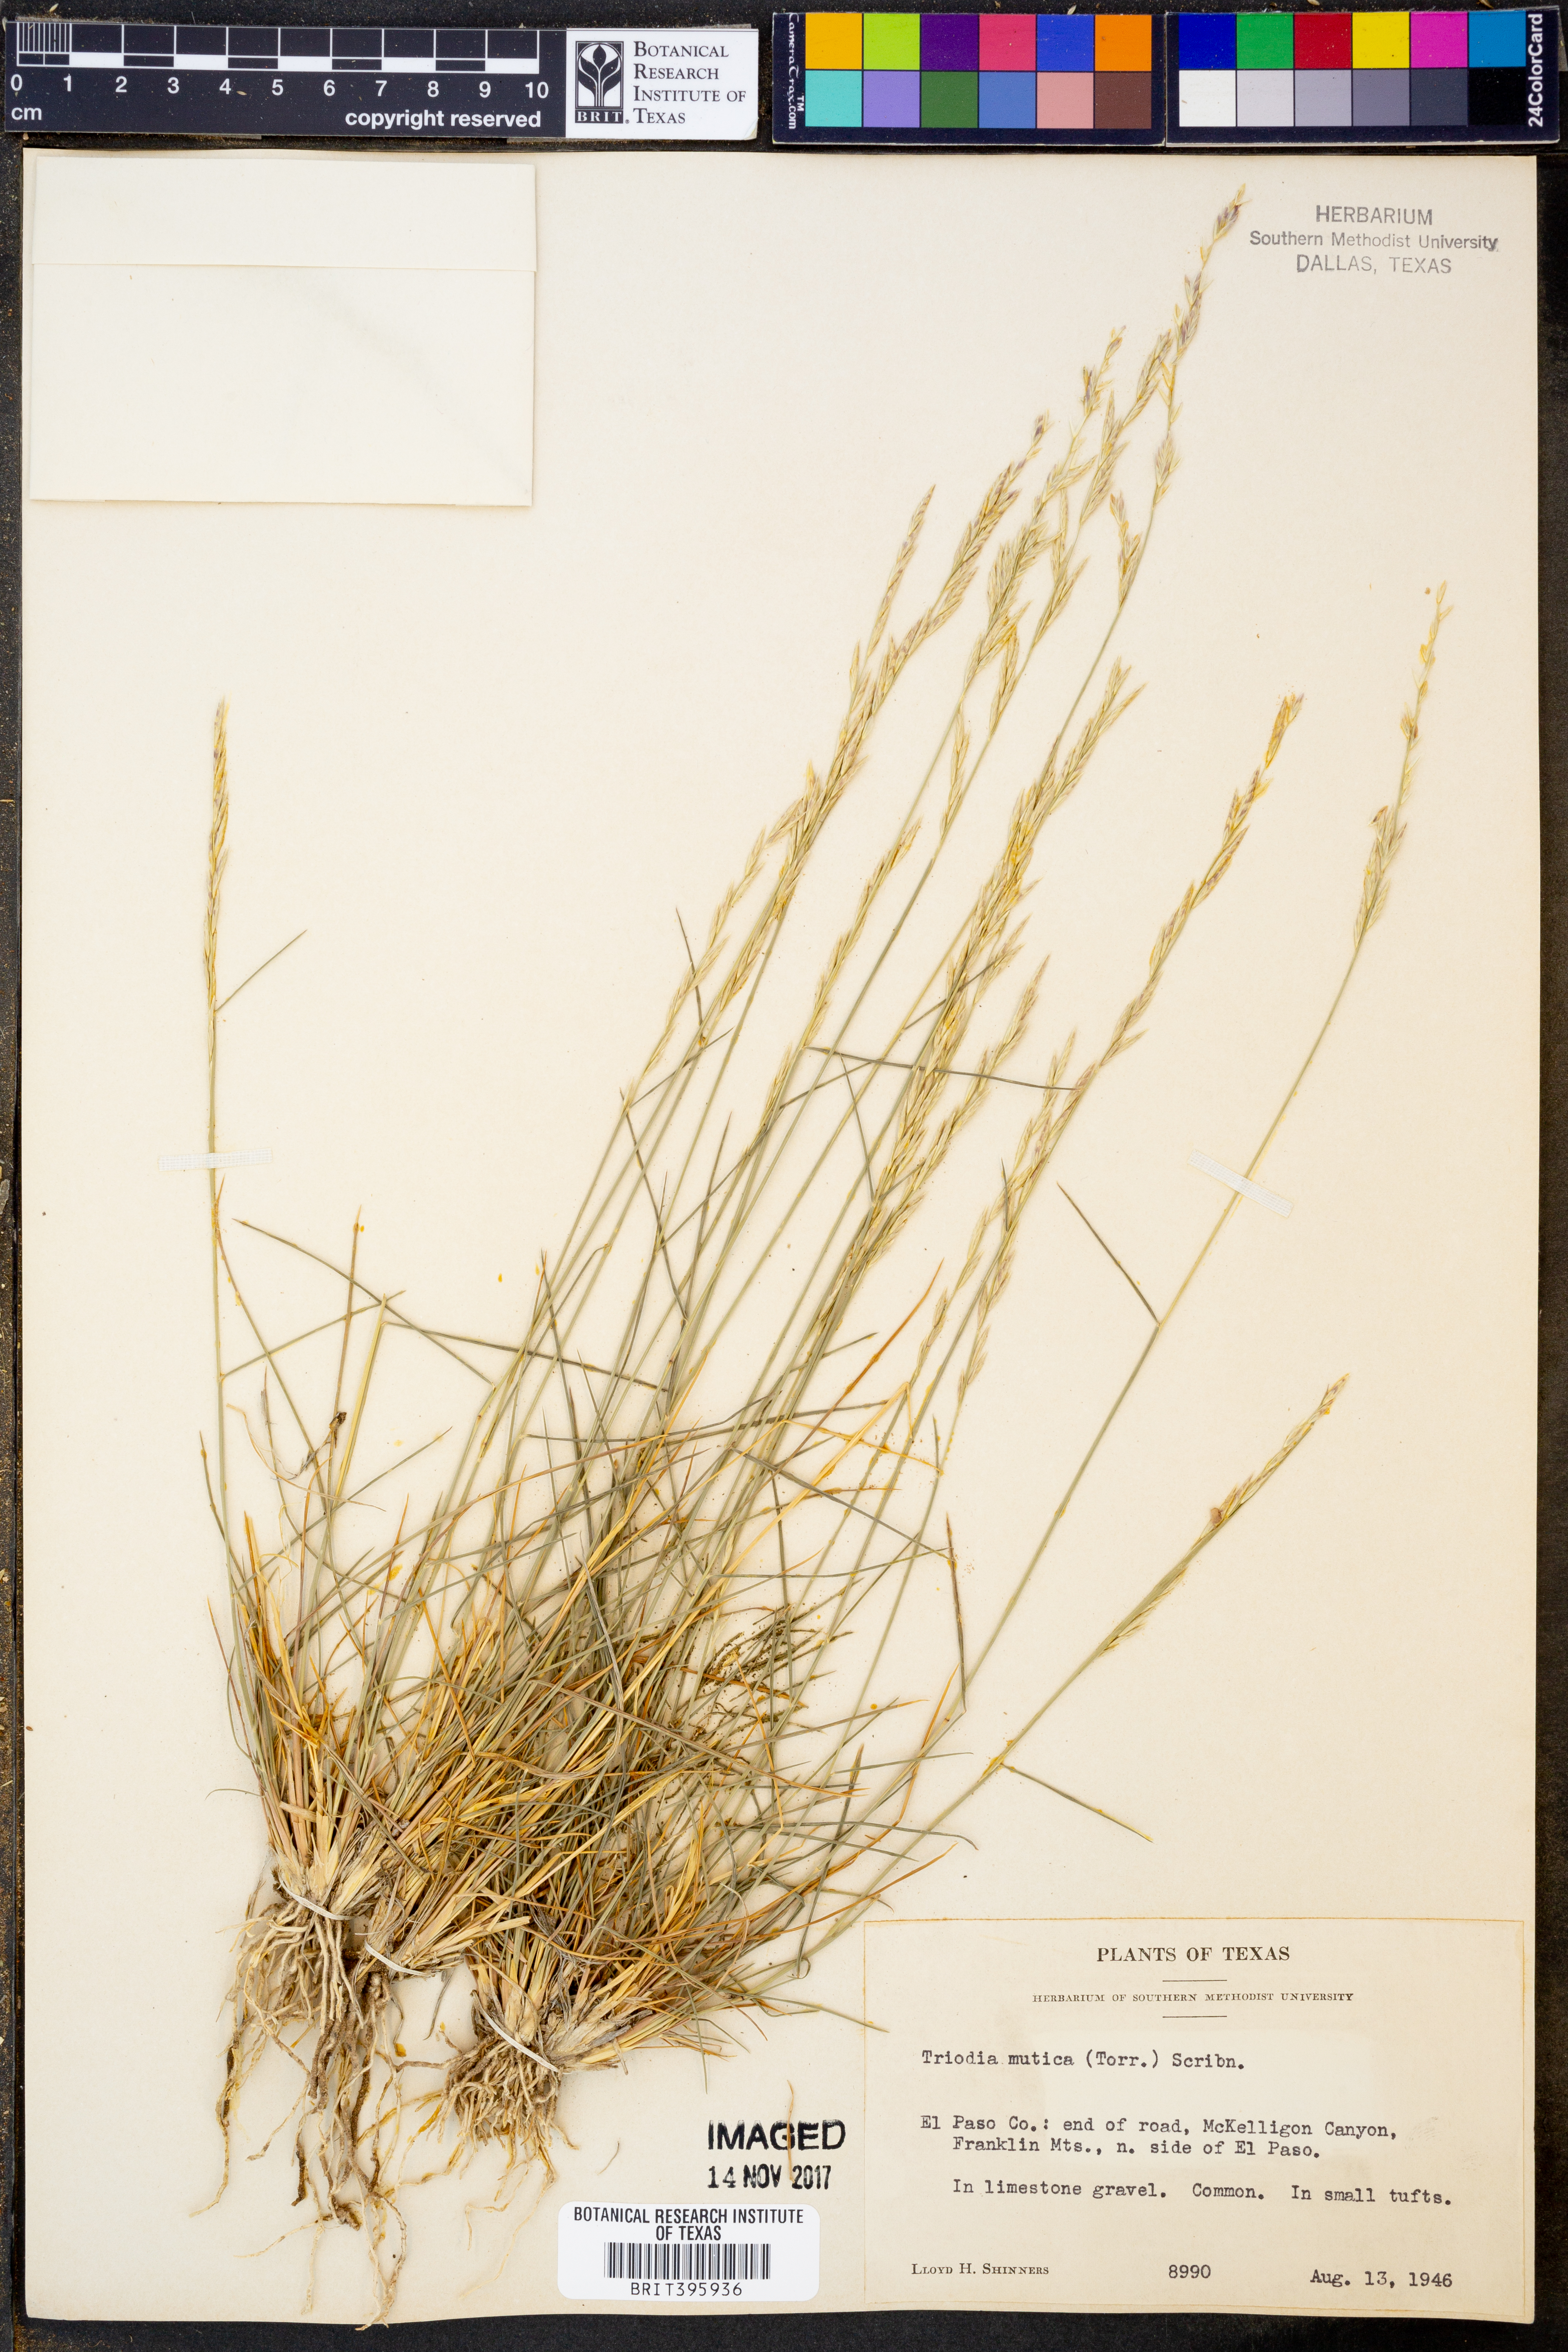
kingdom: Plantae
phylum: Tracheophyta
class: Liliopsida
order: Poales
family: Poaceae
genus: Tridentopsis
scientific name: Tridentopsis mutica
